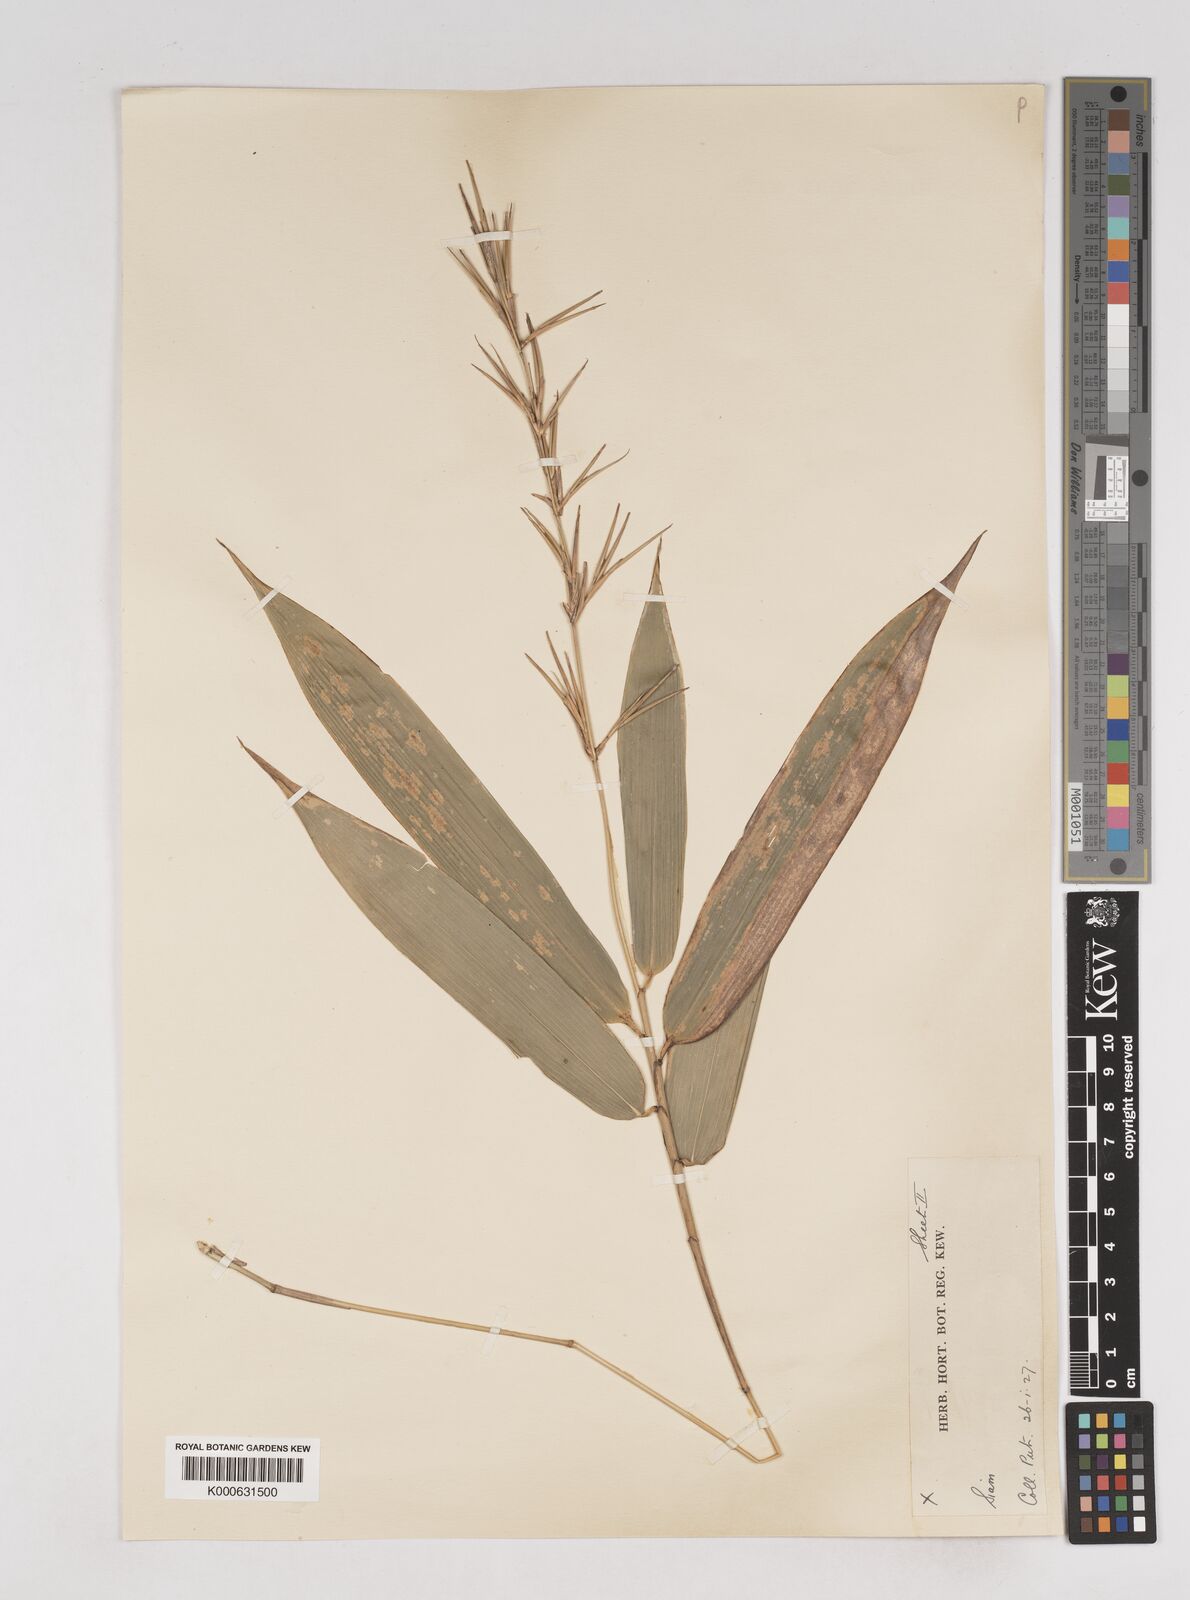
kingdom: Plantae
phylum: Tracheophyta
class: Liliopsida
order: Poales
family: Poaceae
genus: Schizostachyum
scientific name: Schizostachyum
